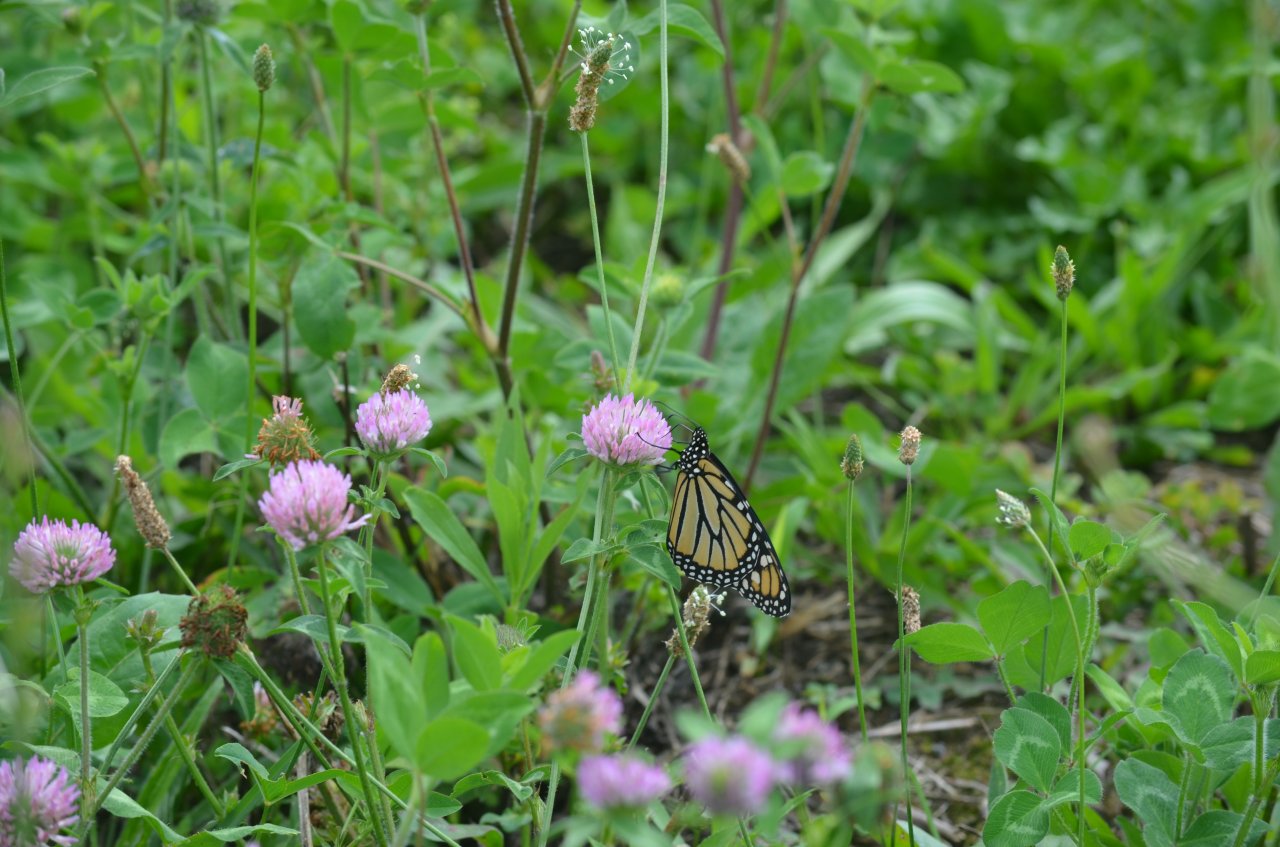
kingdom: Animalia
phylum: Arthropoda
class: Insecta
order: Lepidoptera
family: Nymphalidae
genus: Danaus
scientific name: Danaus plexippus
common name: Monarch
